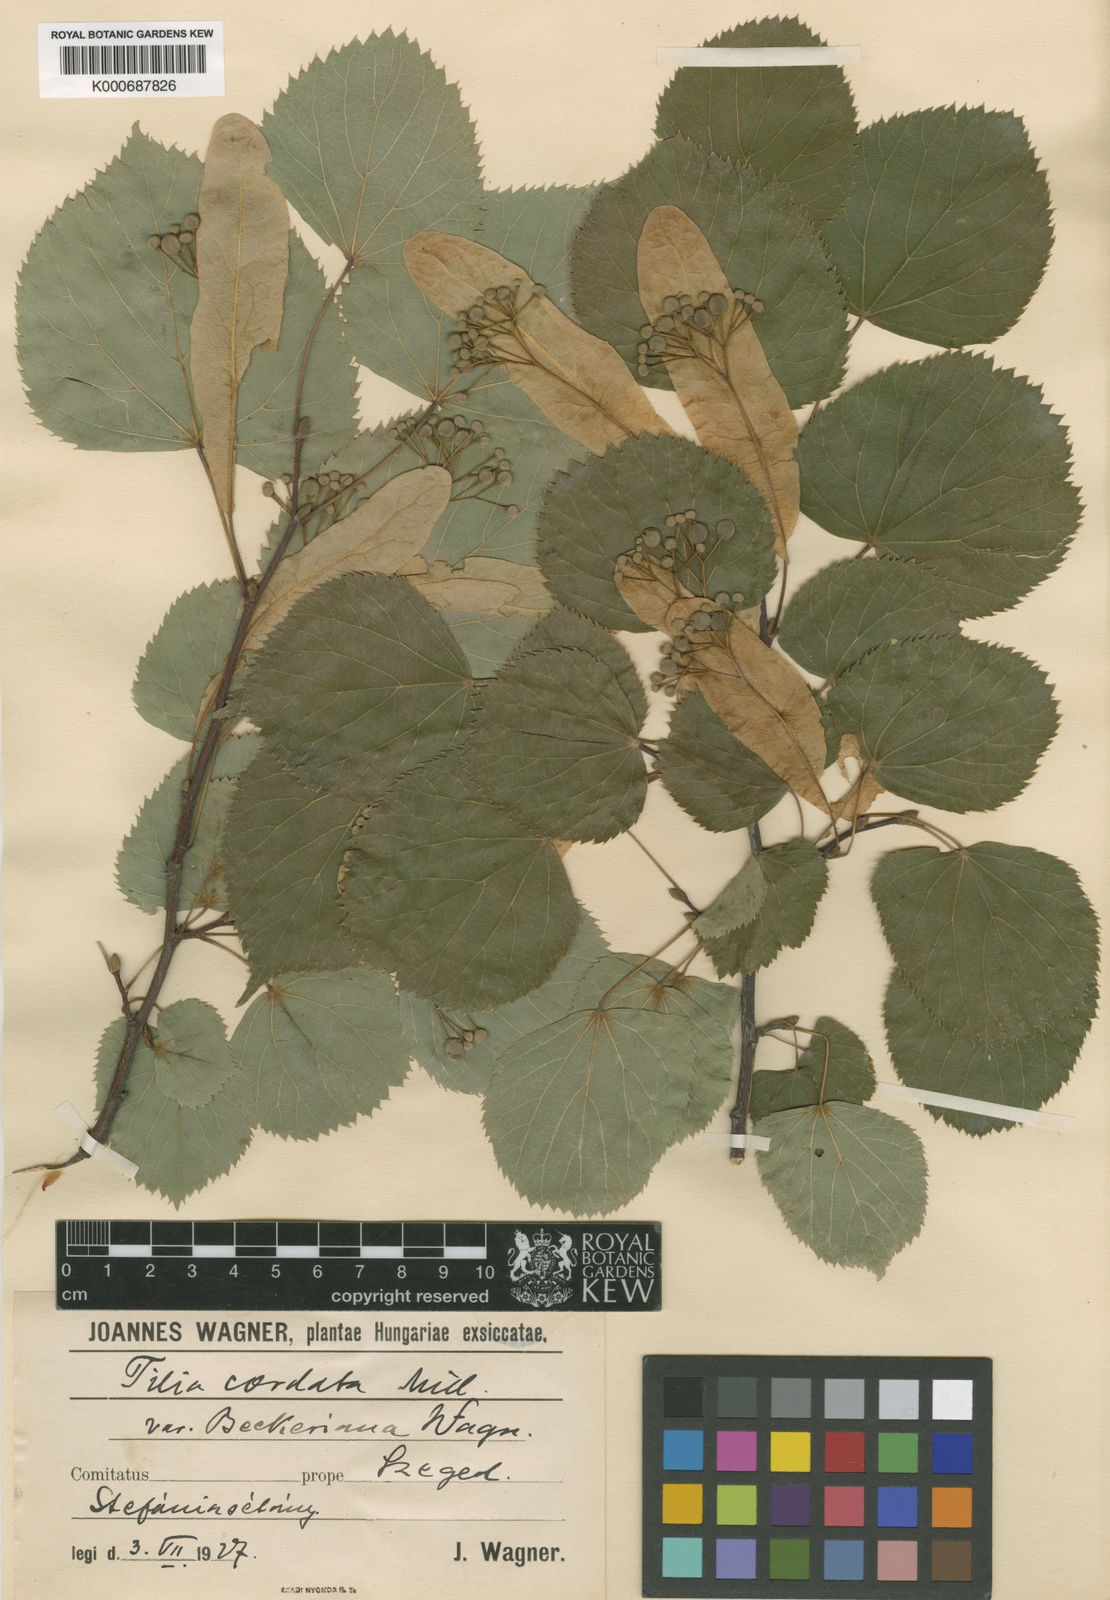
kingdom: Plantae
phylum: Tracheophyta
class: Magnoliopsida
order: Malvales
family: Malvaceae
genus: Tilia
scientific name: Tilia cordata
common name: Small-leaved lime
